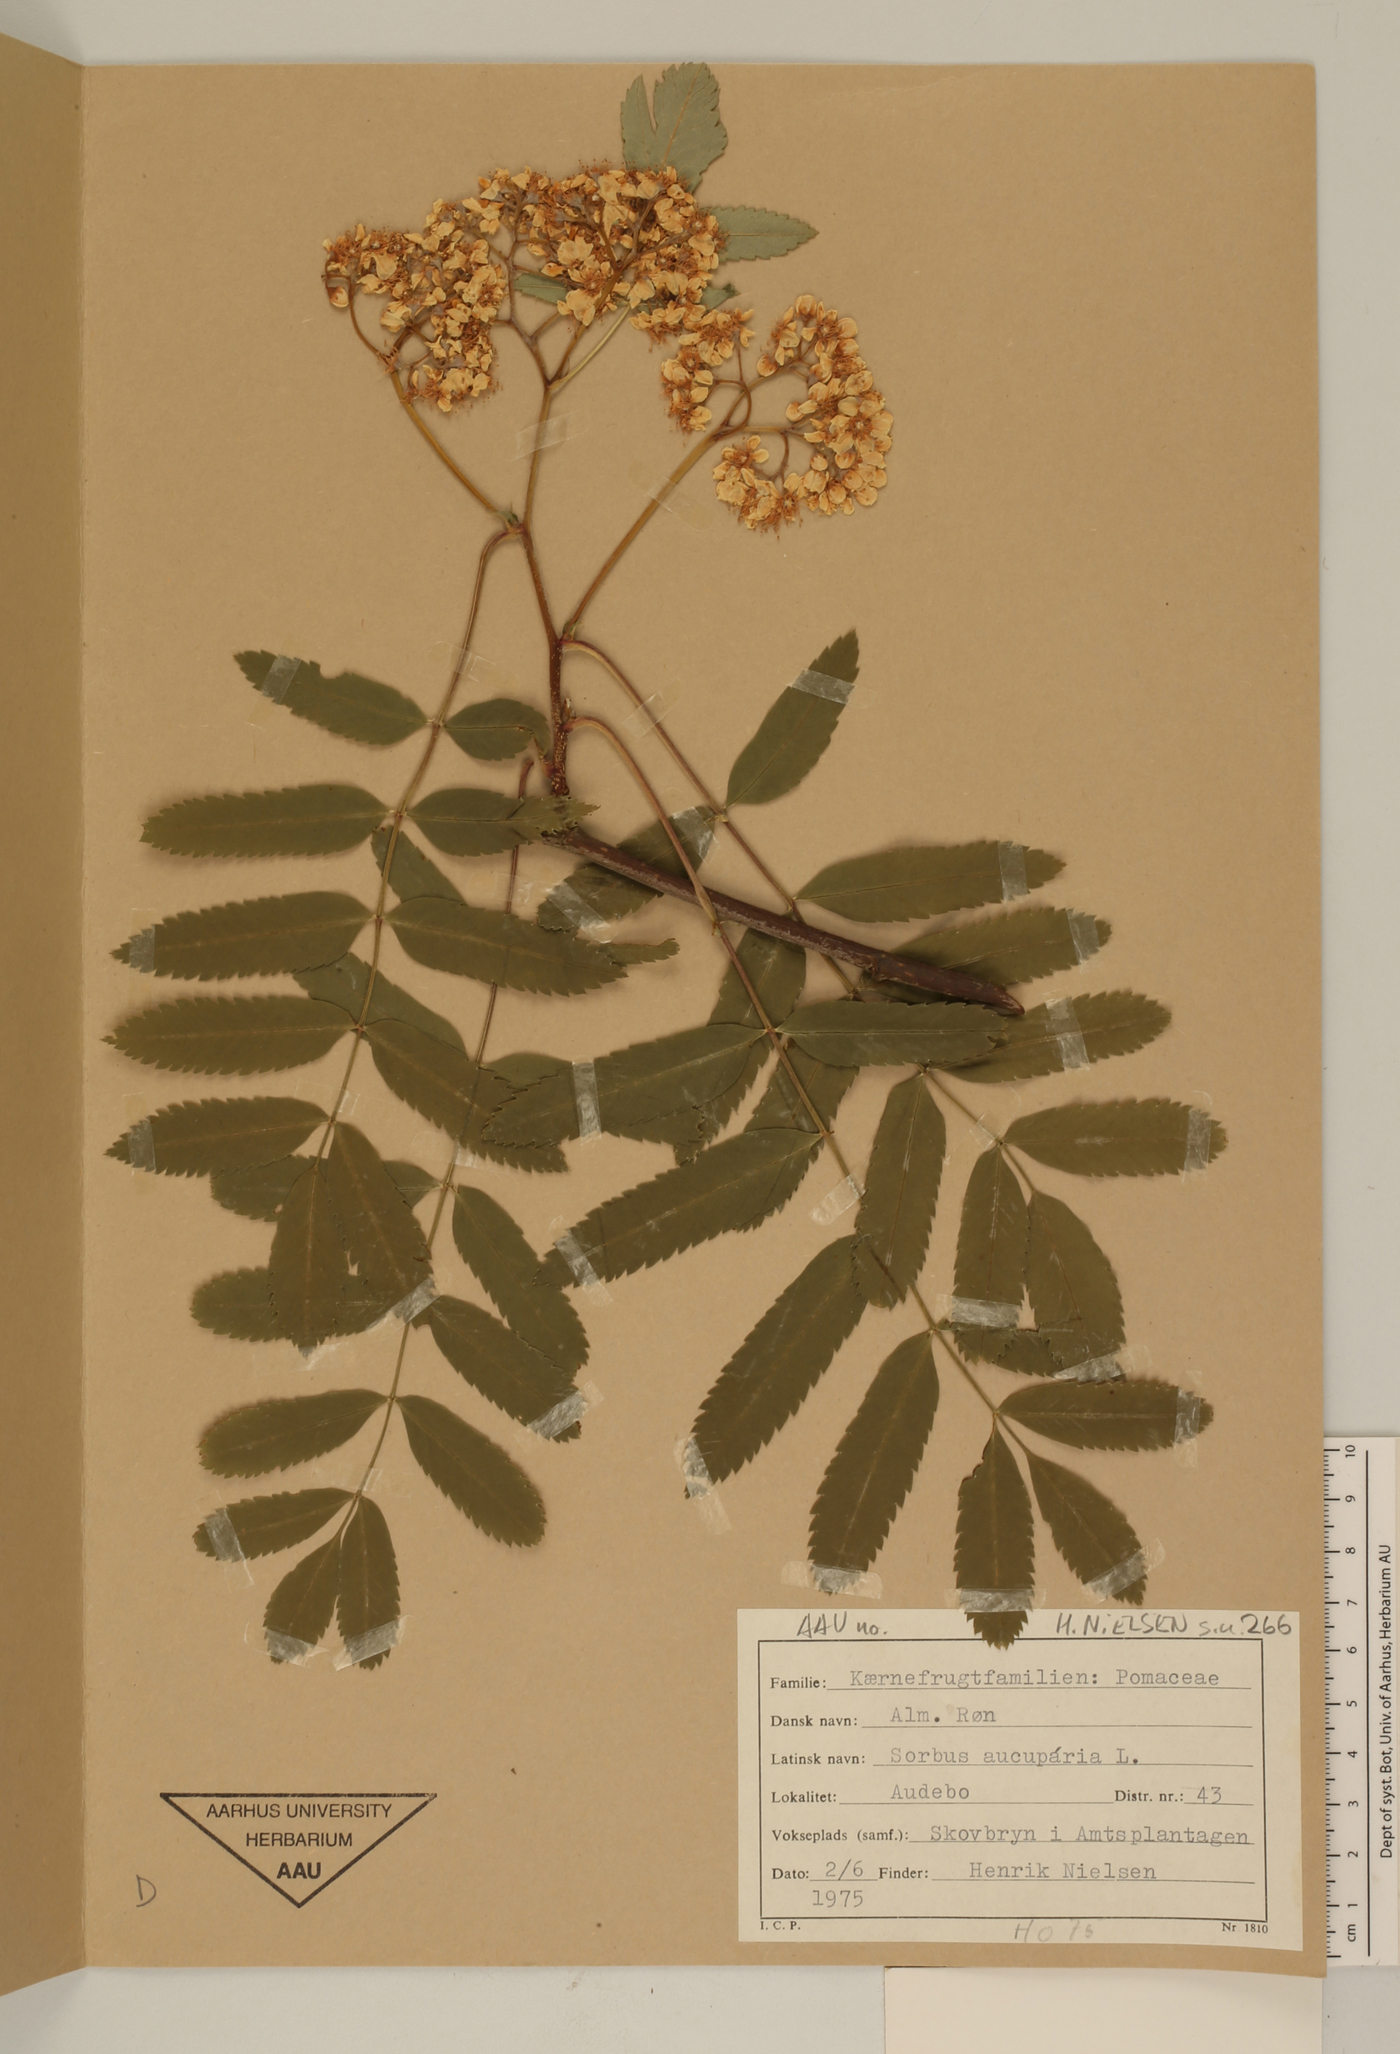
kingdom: Plantae
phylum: Tracheophyta
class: Magnoliopsida
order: Rosales
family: Rosaceae
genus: Sorbus
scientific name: Sorbus aucuparia
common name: Rowan
